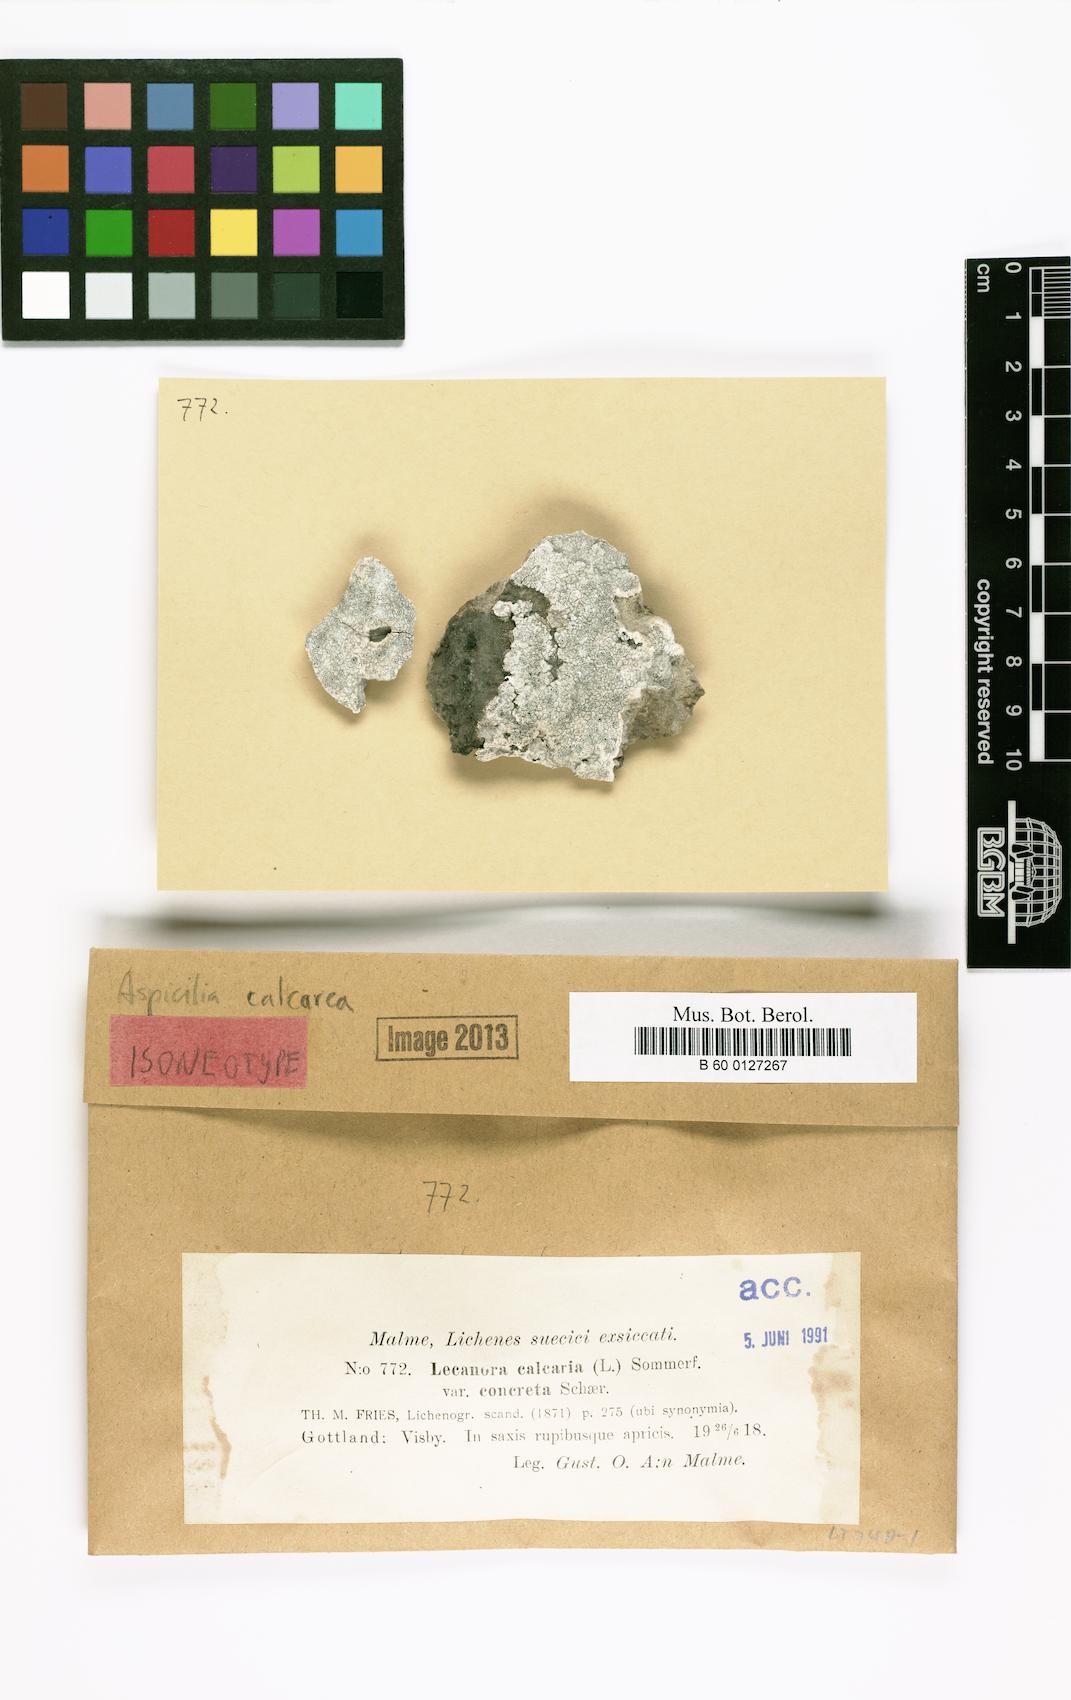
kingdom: Fungi
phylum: Ascomycota
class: Lecanoromycetes
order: Pertusariales
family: Megasporaceae
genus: Circinaria
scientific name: Circinaria calcarea
